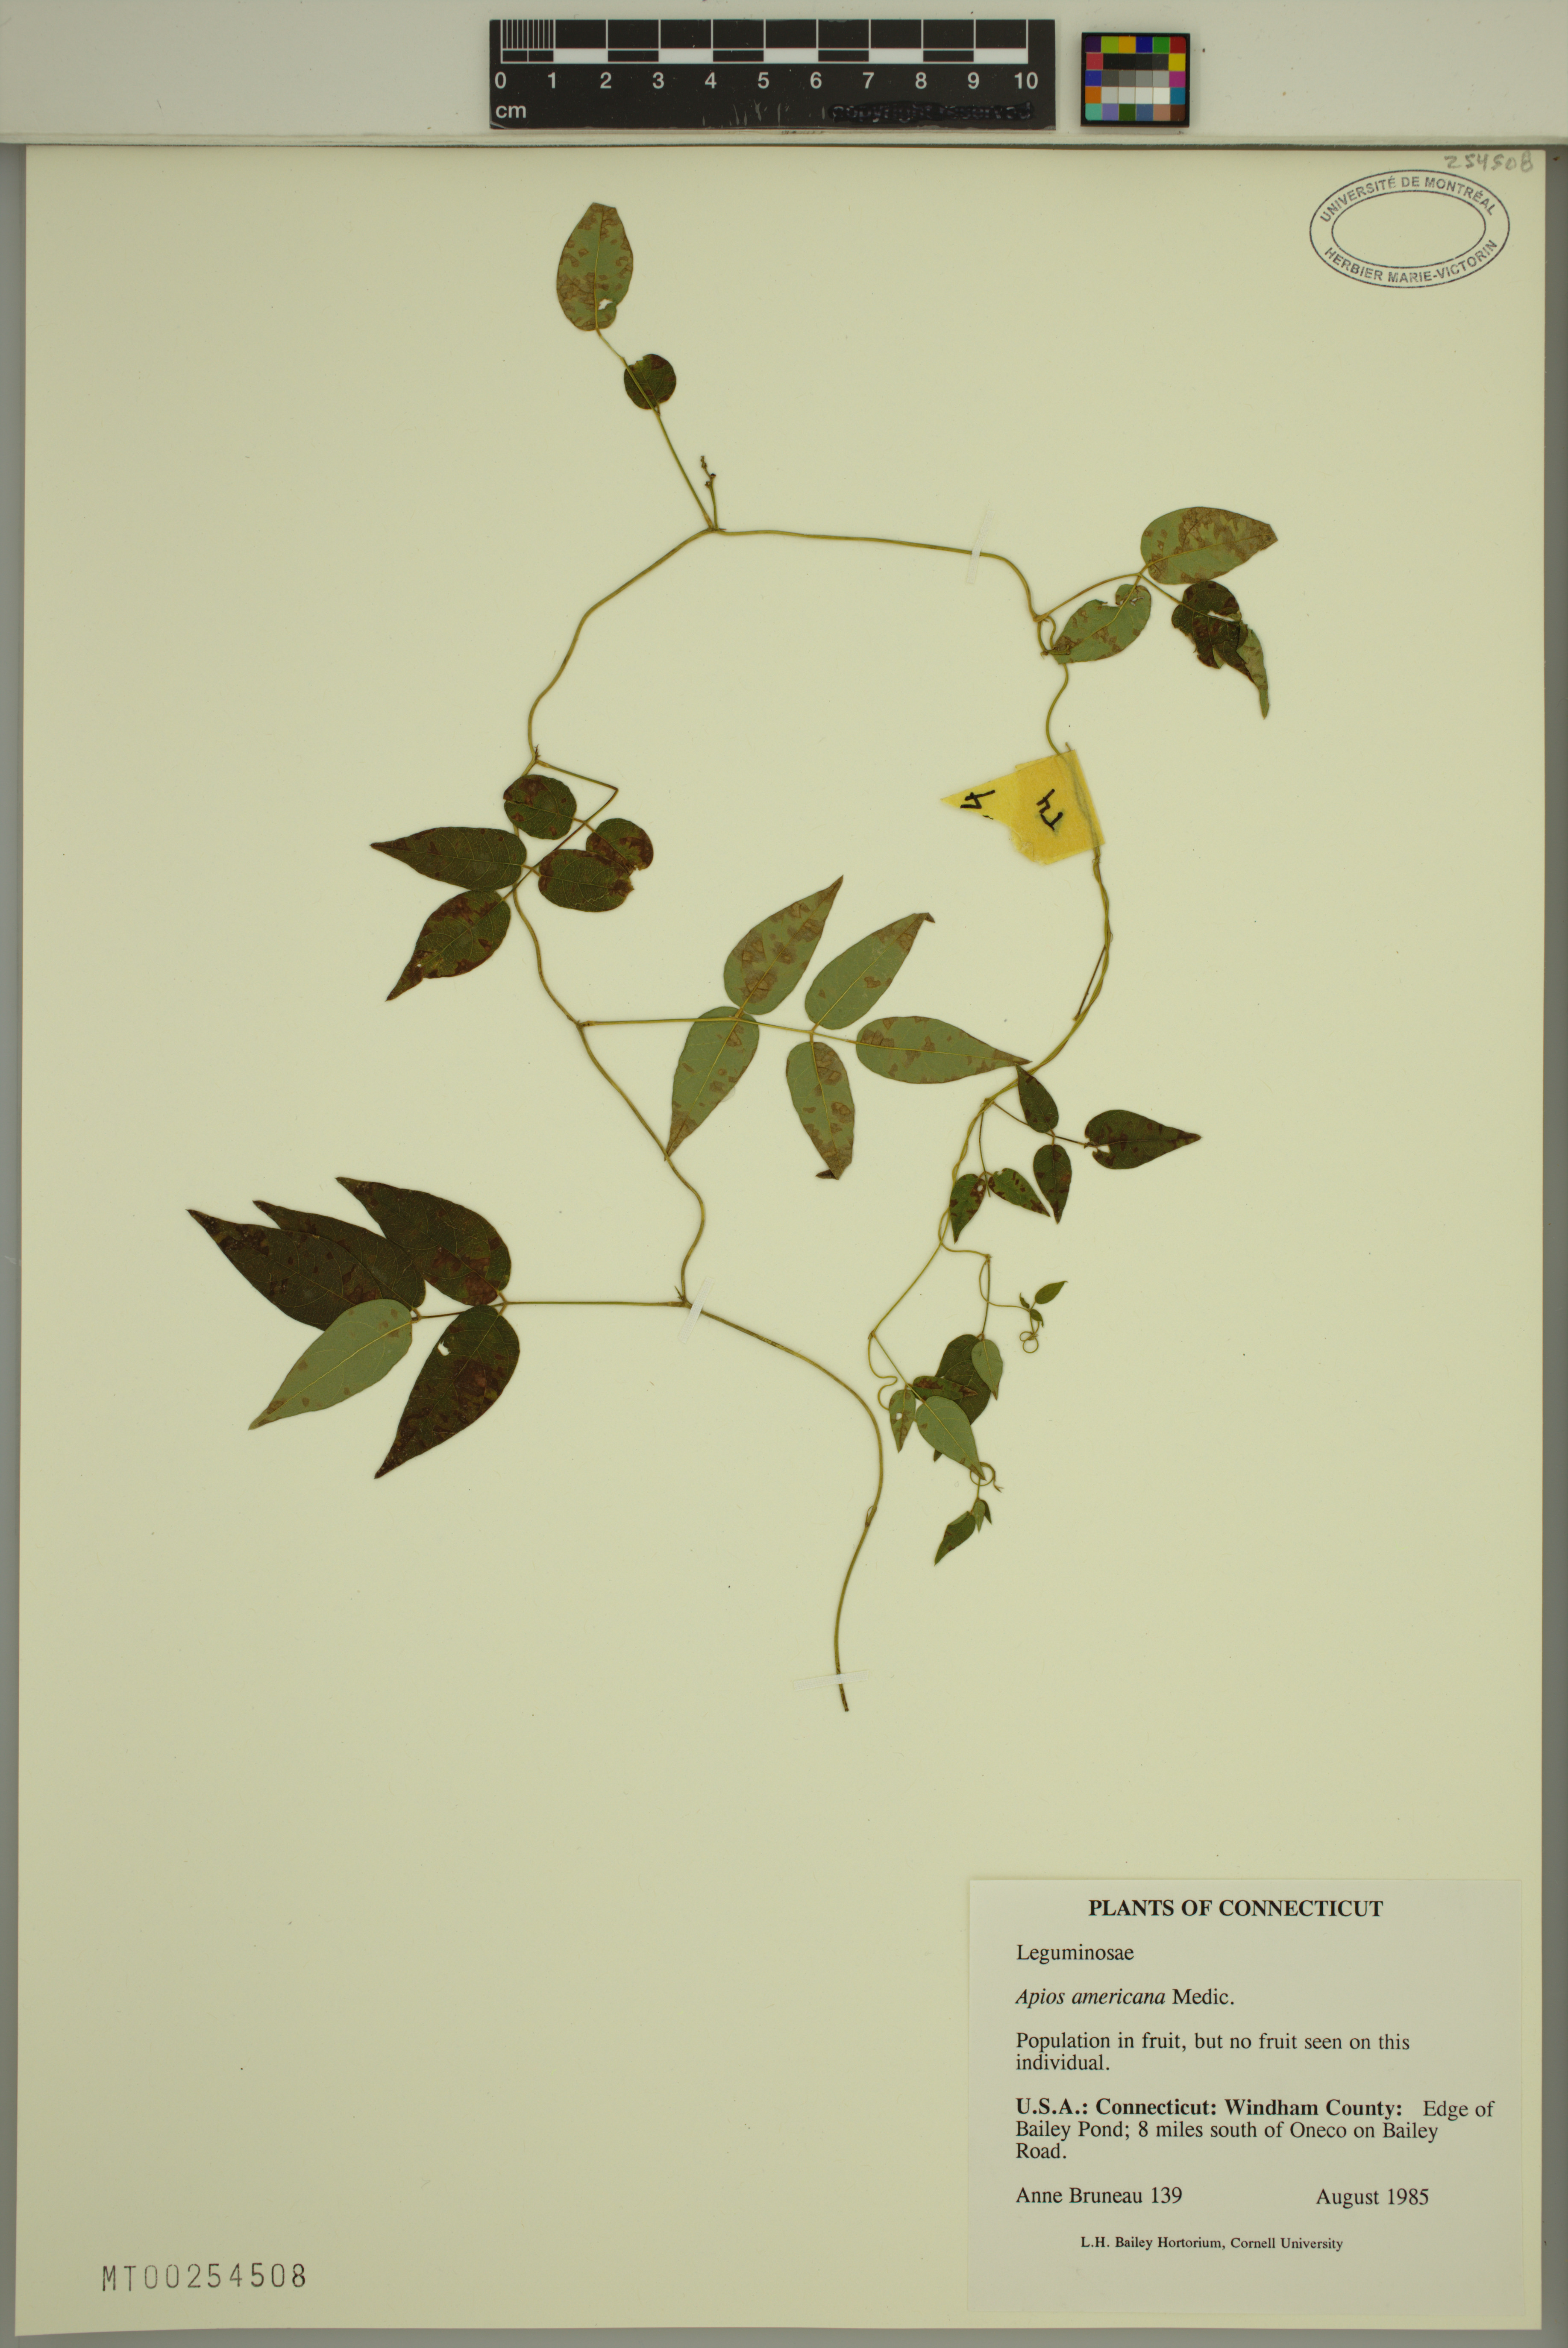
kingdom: Plantae
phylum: Tracheophyta
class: Magnoliopsida
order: Fabales
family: Fabaceae
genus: Apios
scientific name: Apios americana
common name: American potato-bean
